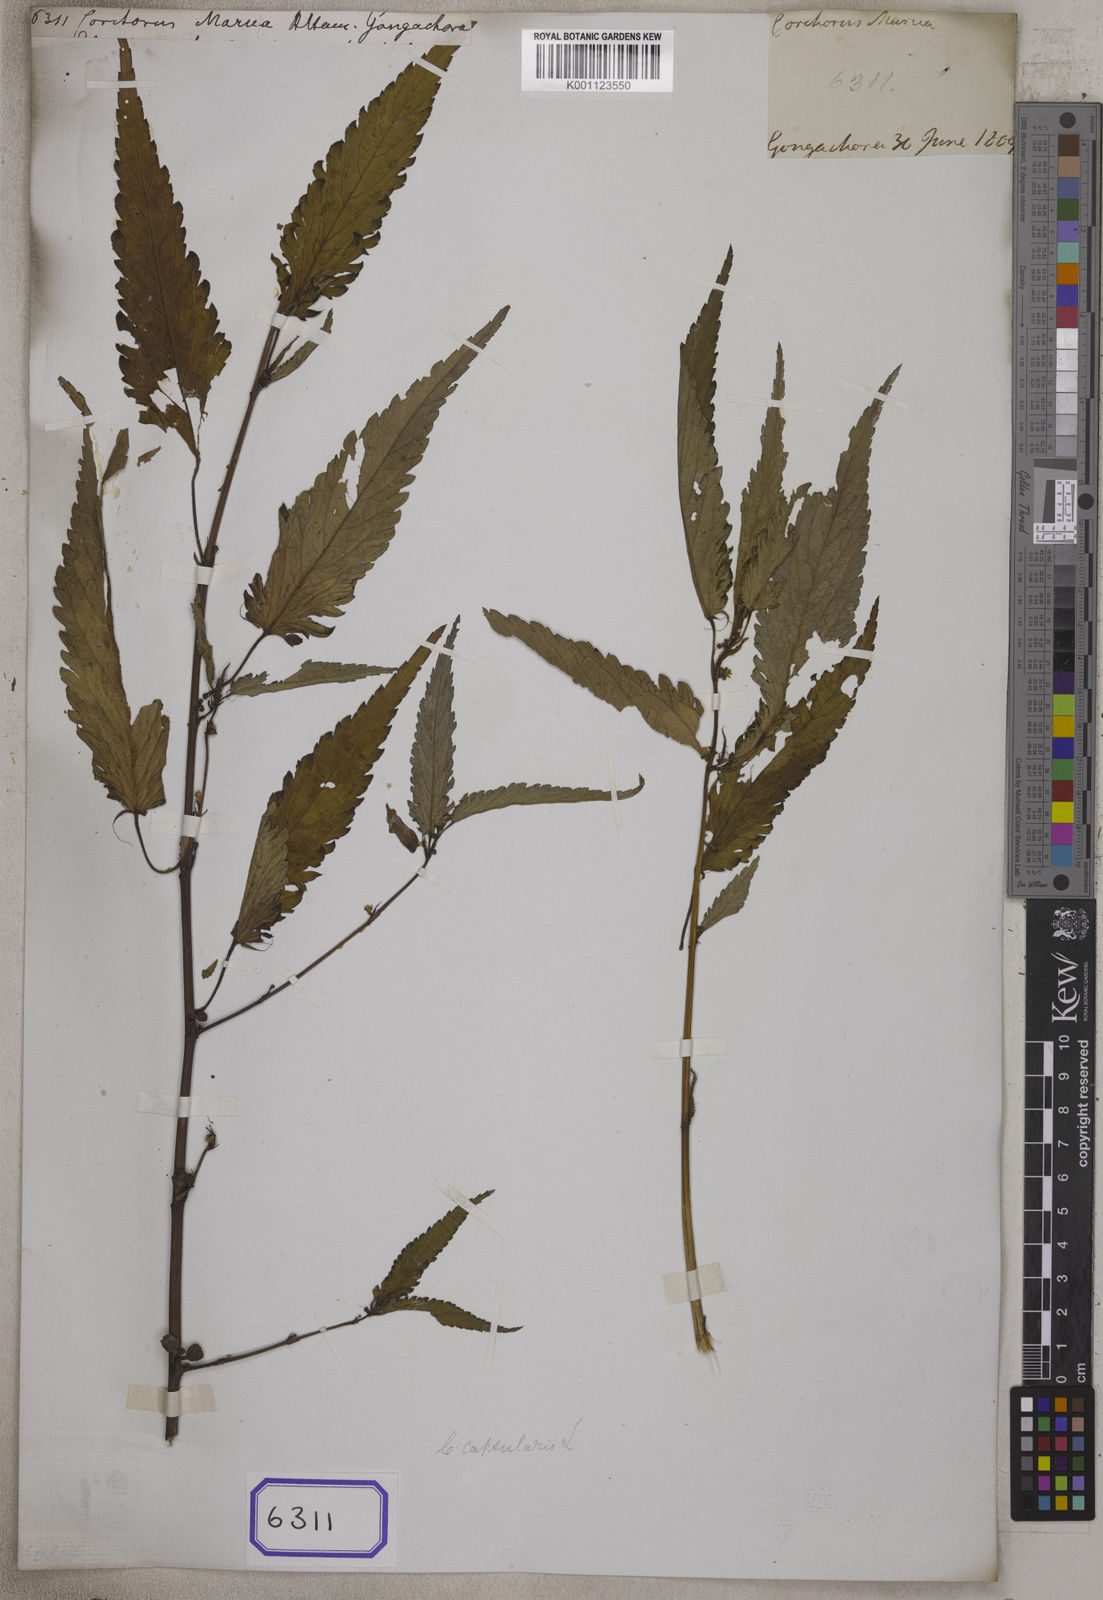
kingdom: Plantae
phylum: Tracheophyta
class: Magnoliopsida
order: Malvales
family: Malvaceae
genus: Corchorus
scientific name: Corchorus capsularis
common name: Jute
